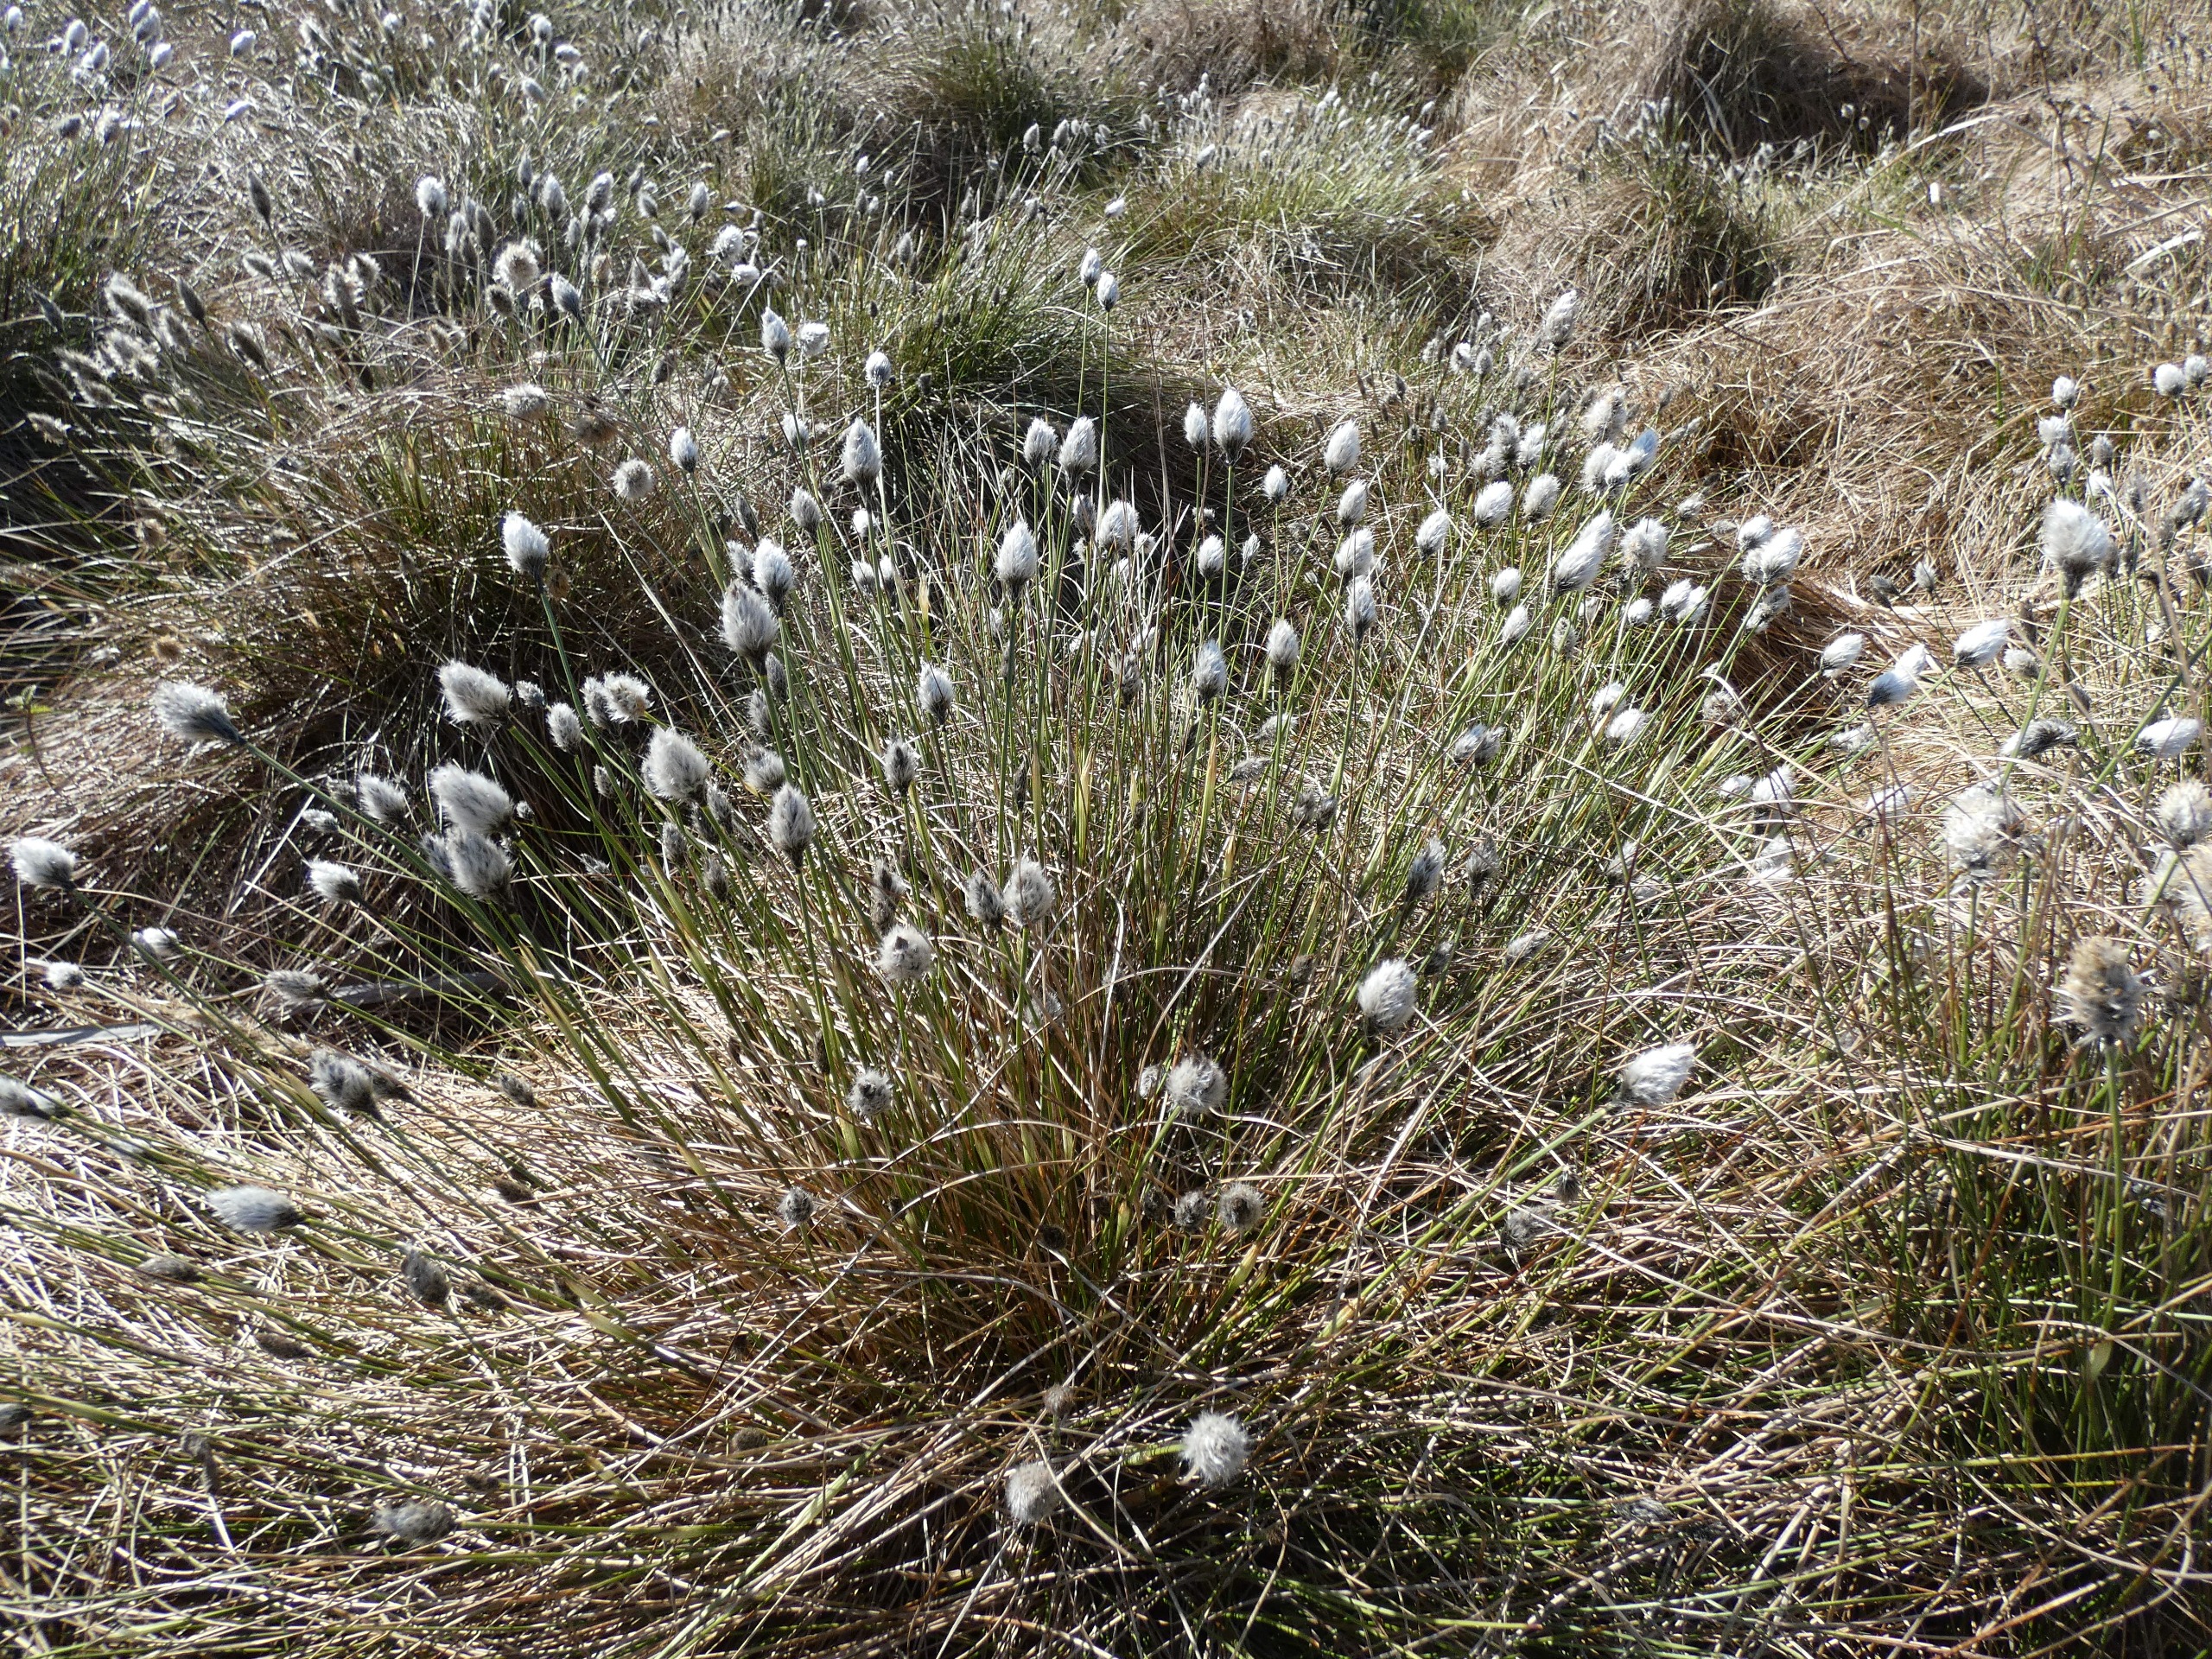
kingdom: Plantae
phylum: Tracheophyta
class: Liliopsida
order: Poales
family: Cyperaceae
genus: Eriophorum
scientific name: Eriophorum vaginatum
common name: Tue-kæruld
